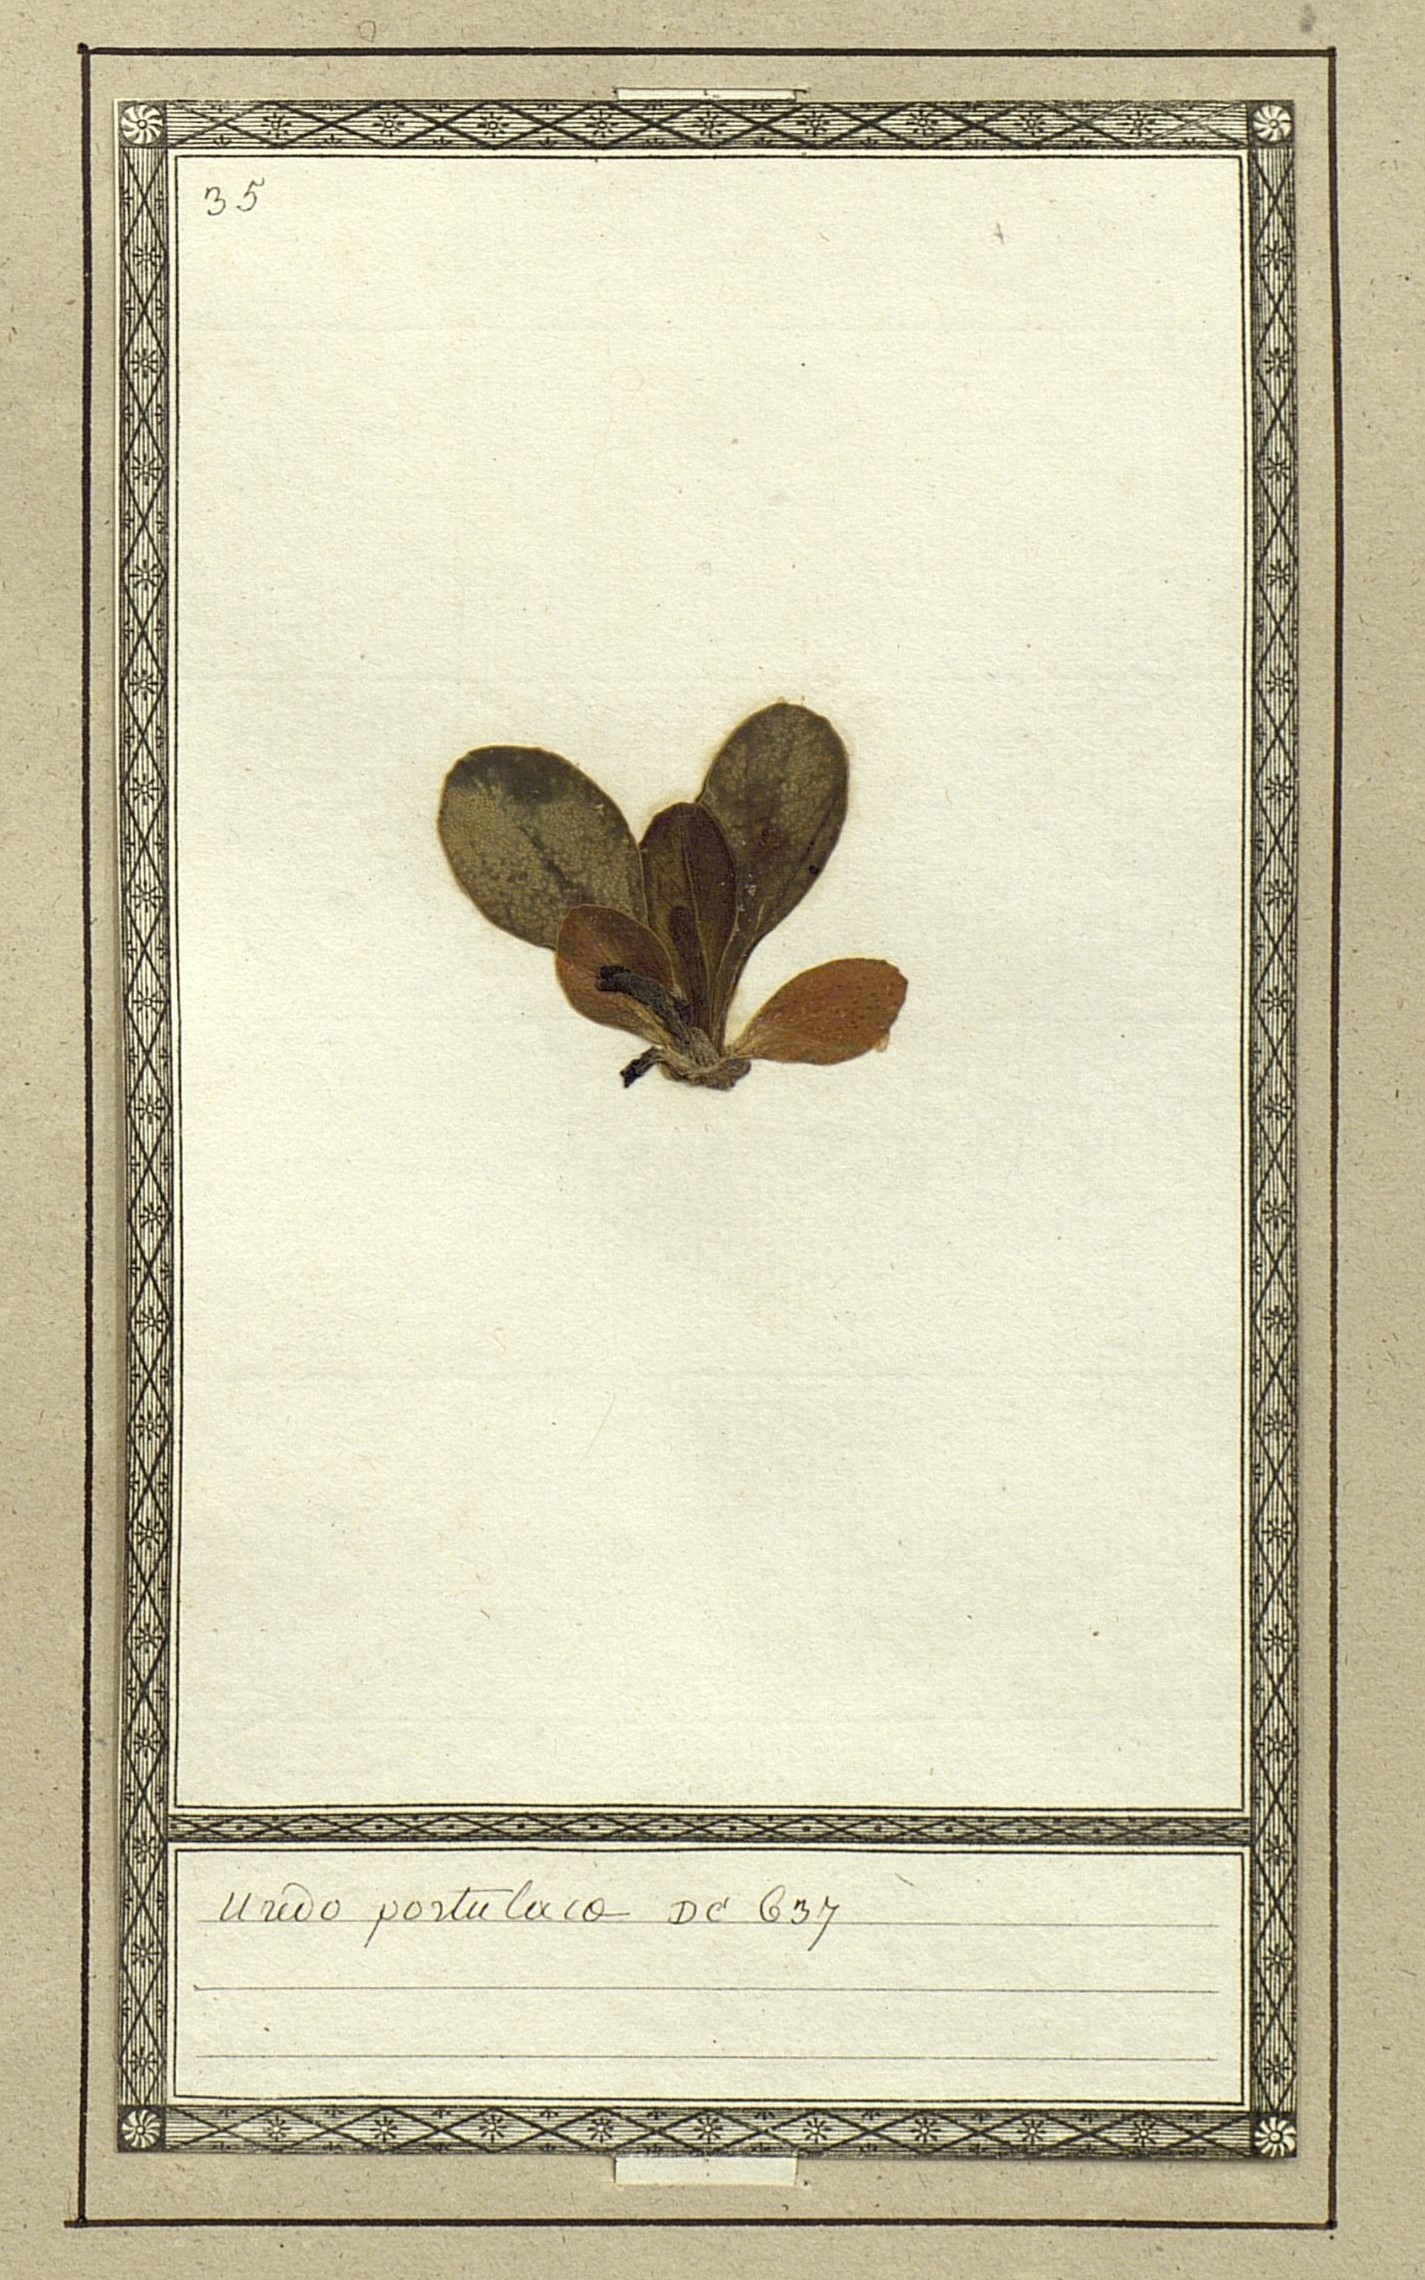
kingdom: Fungi
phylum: Basidiomycota
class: Pucciniomycetes
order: Pucciniales
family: Pucciniaceae
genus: Uredo
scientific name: Uredo
